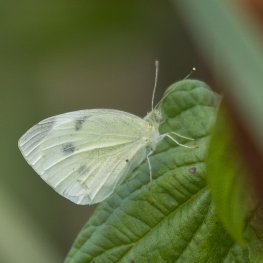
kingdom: Animalia
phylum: Arthropoda
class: Insecta
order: Lepidoptera
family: Pieridae
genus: Pieris
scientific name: Pieris rapae
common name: Cabbage White
